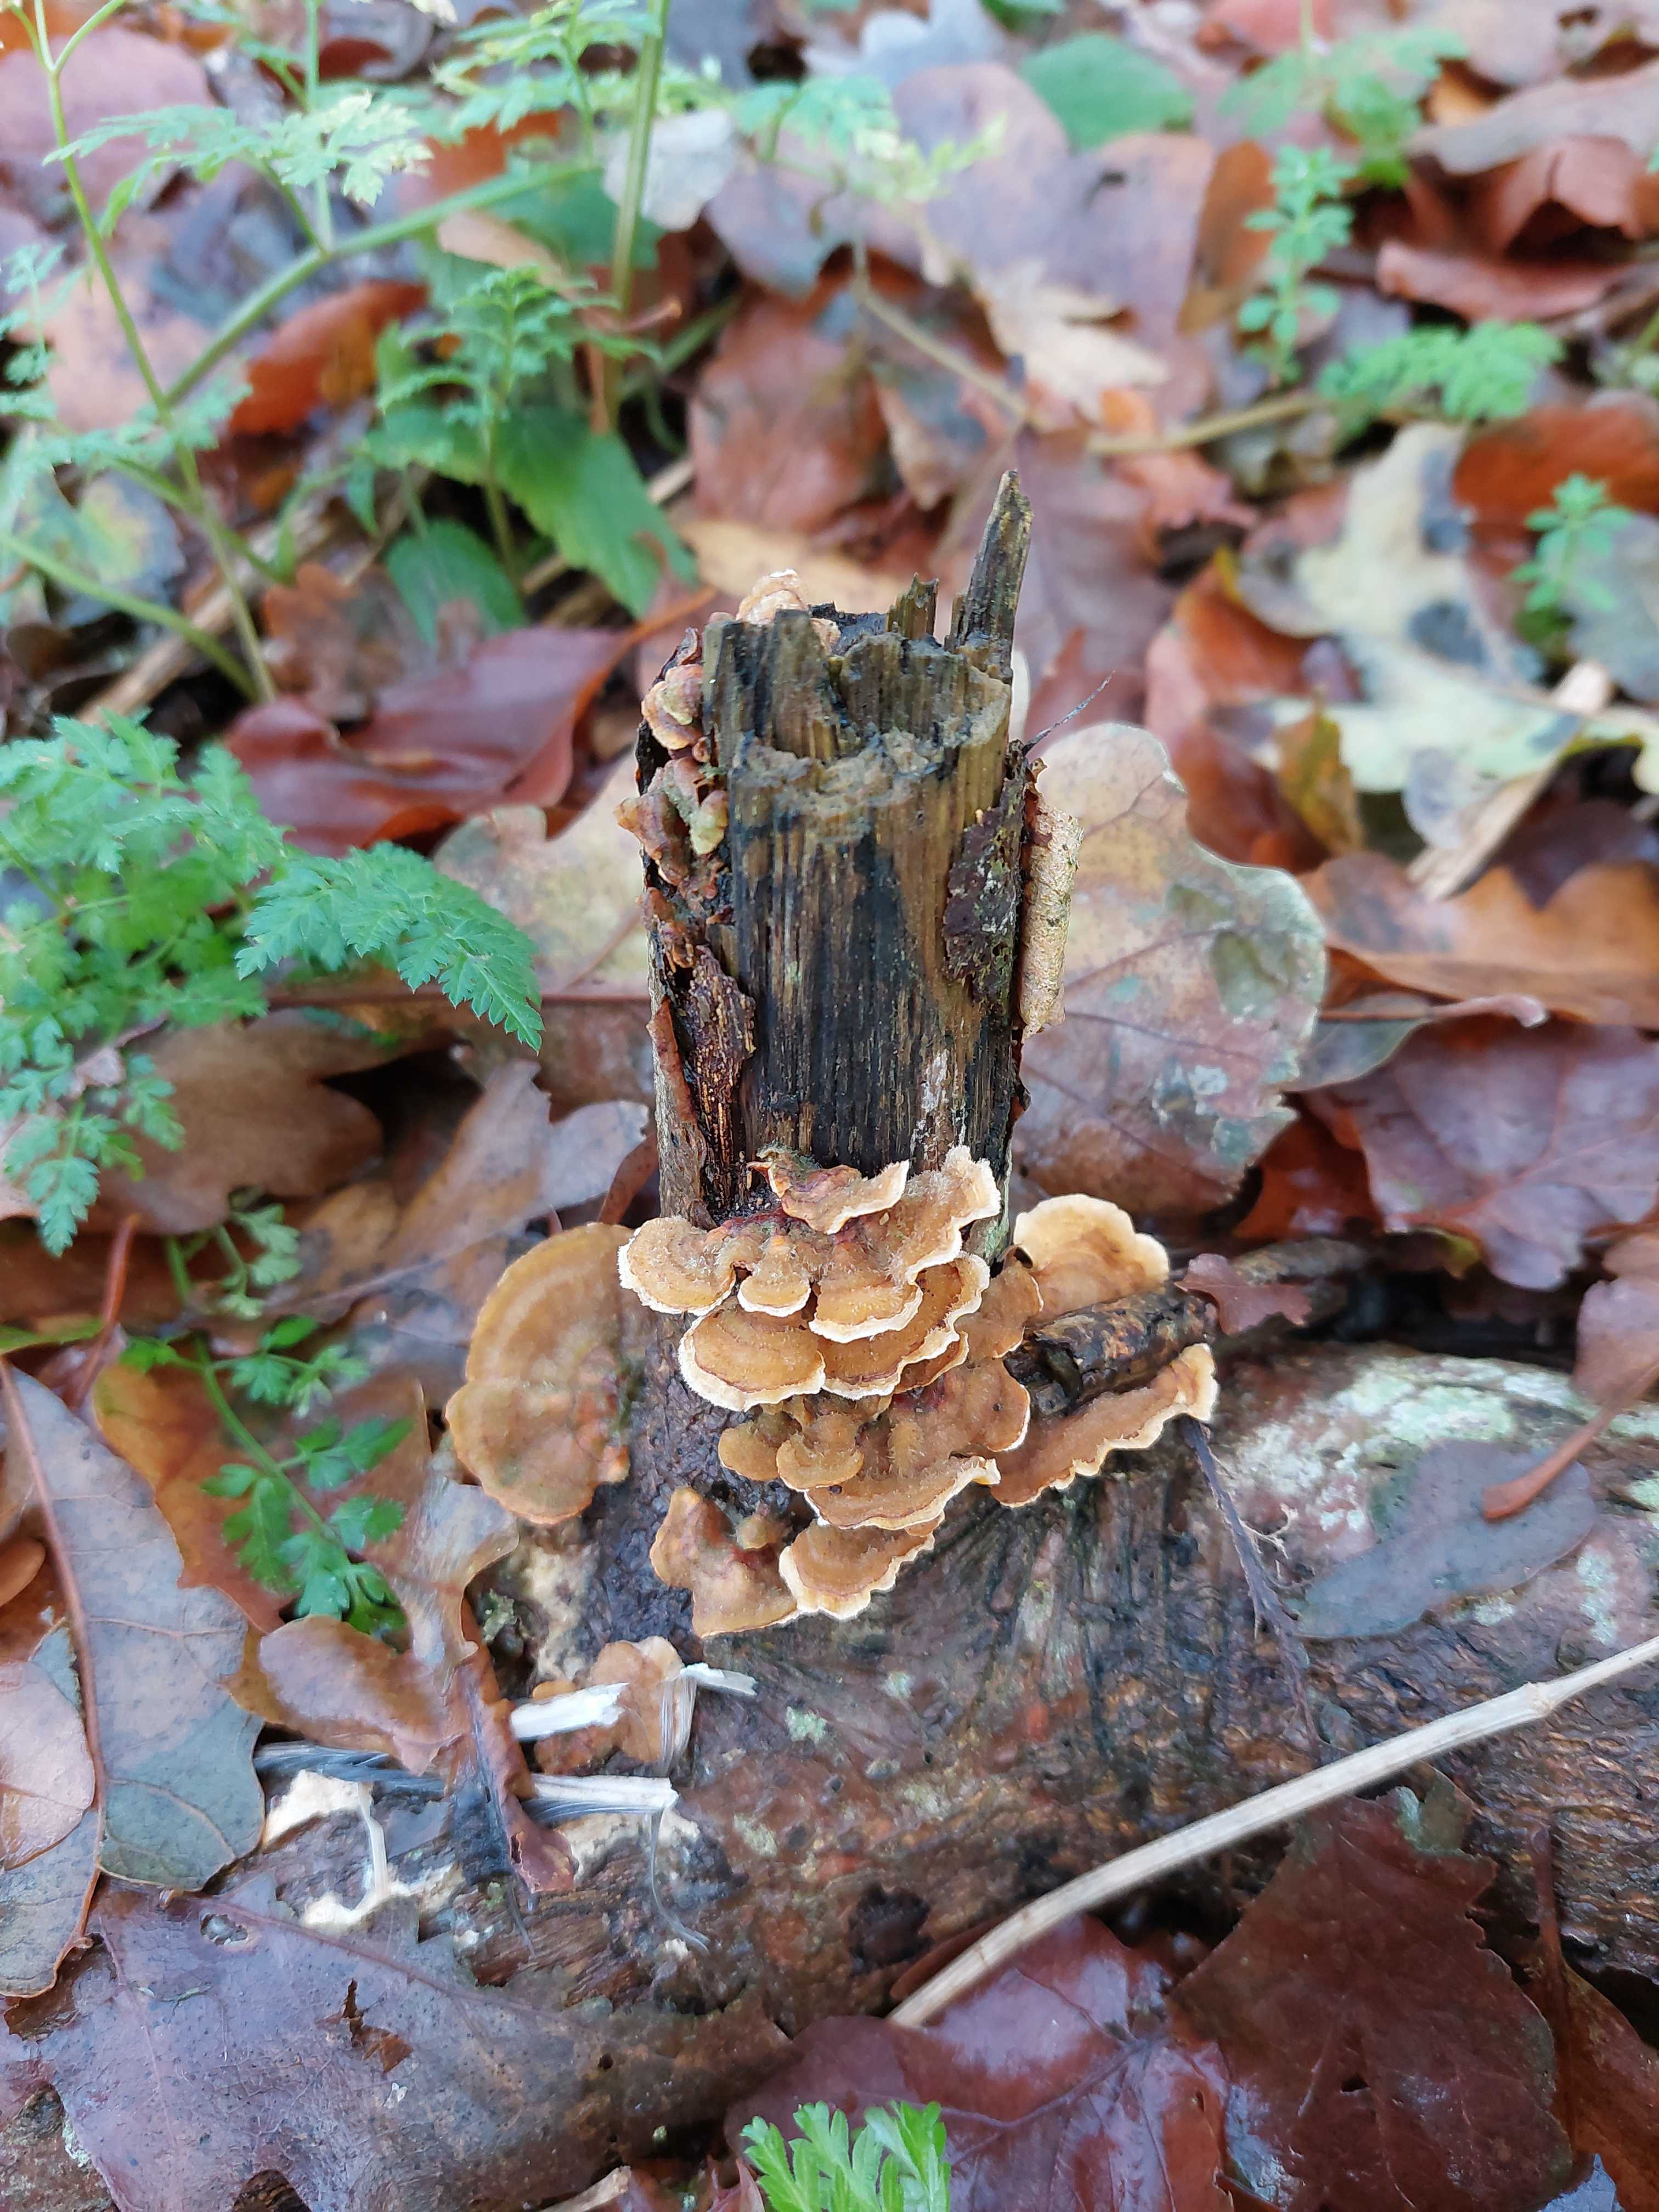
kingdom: Fungi
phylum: Basidiomycota
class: Agaricomycetes
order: Russulales
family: Stereaceae
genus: Stereum
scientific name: Stereum hirsutum
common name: håret lædersvamp
